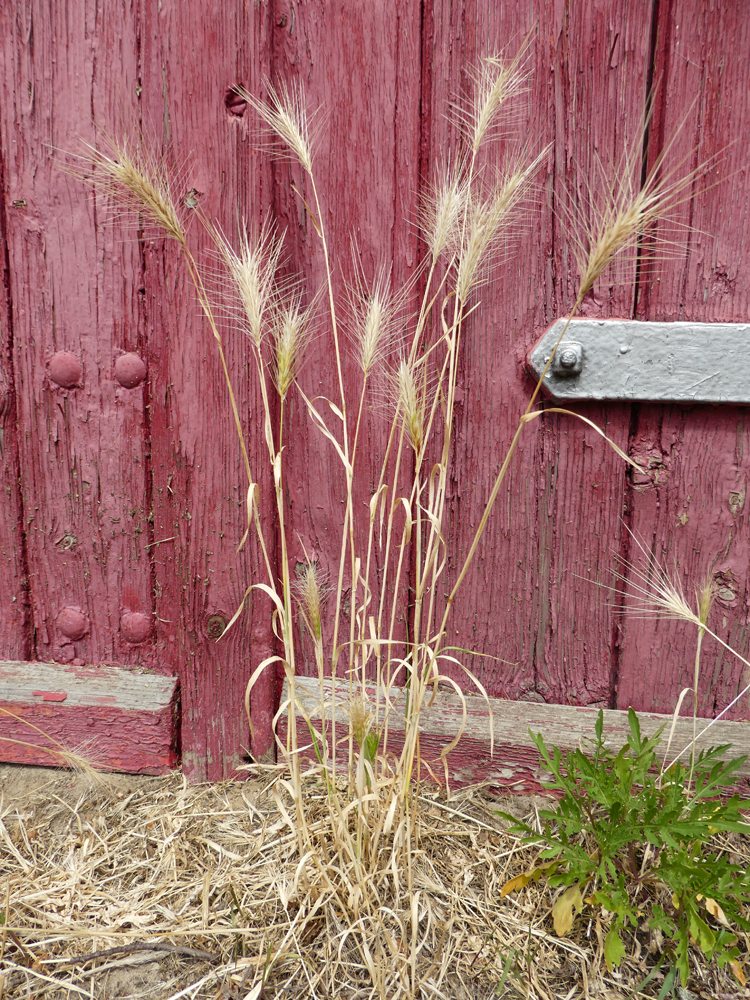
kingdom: Plantae
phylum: Tracheophyta
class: Liliopsida
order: Poales
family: Poaceae
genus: Hordeum
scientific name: Hordeum murinum
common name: Wall barley
